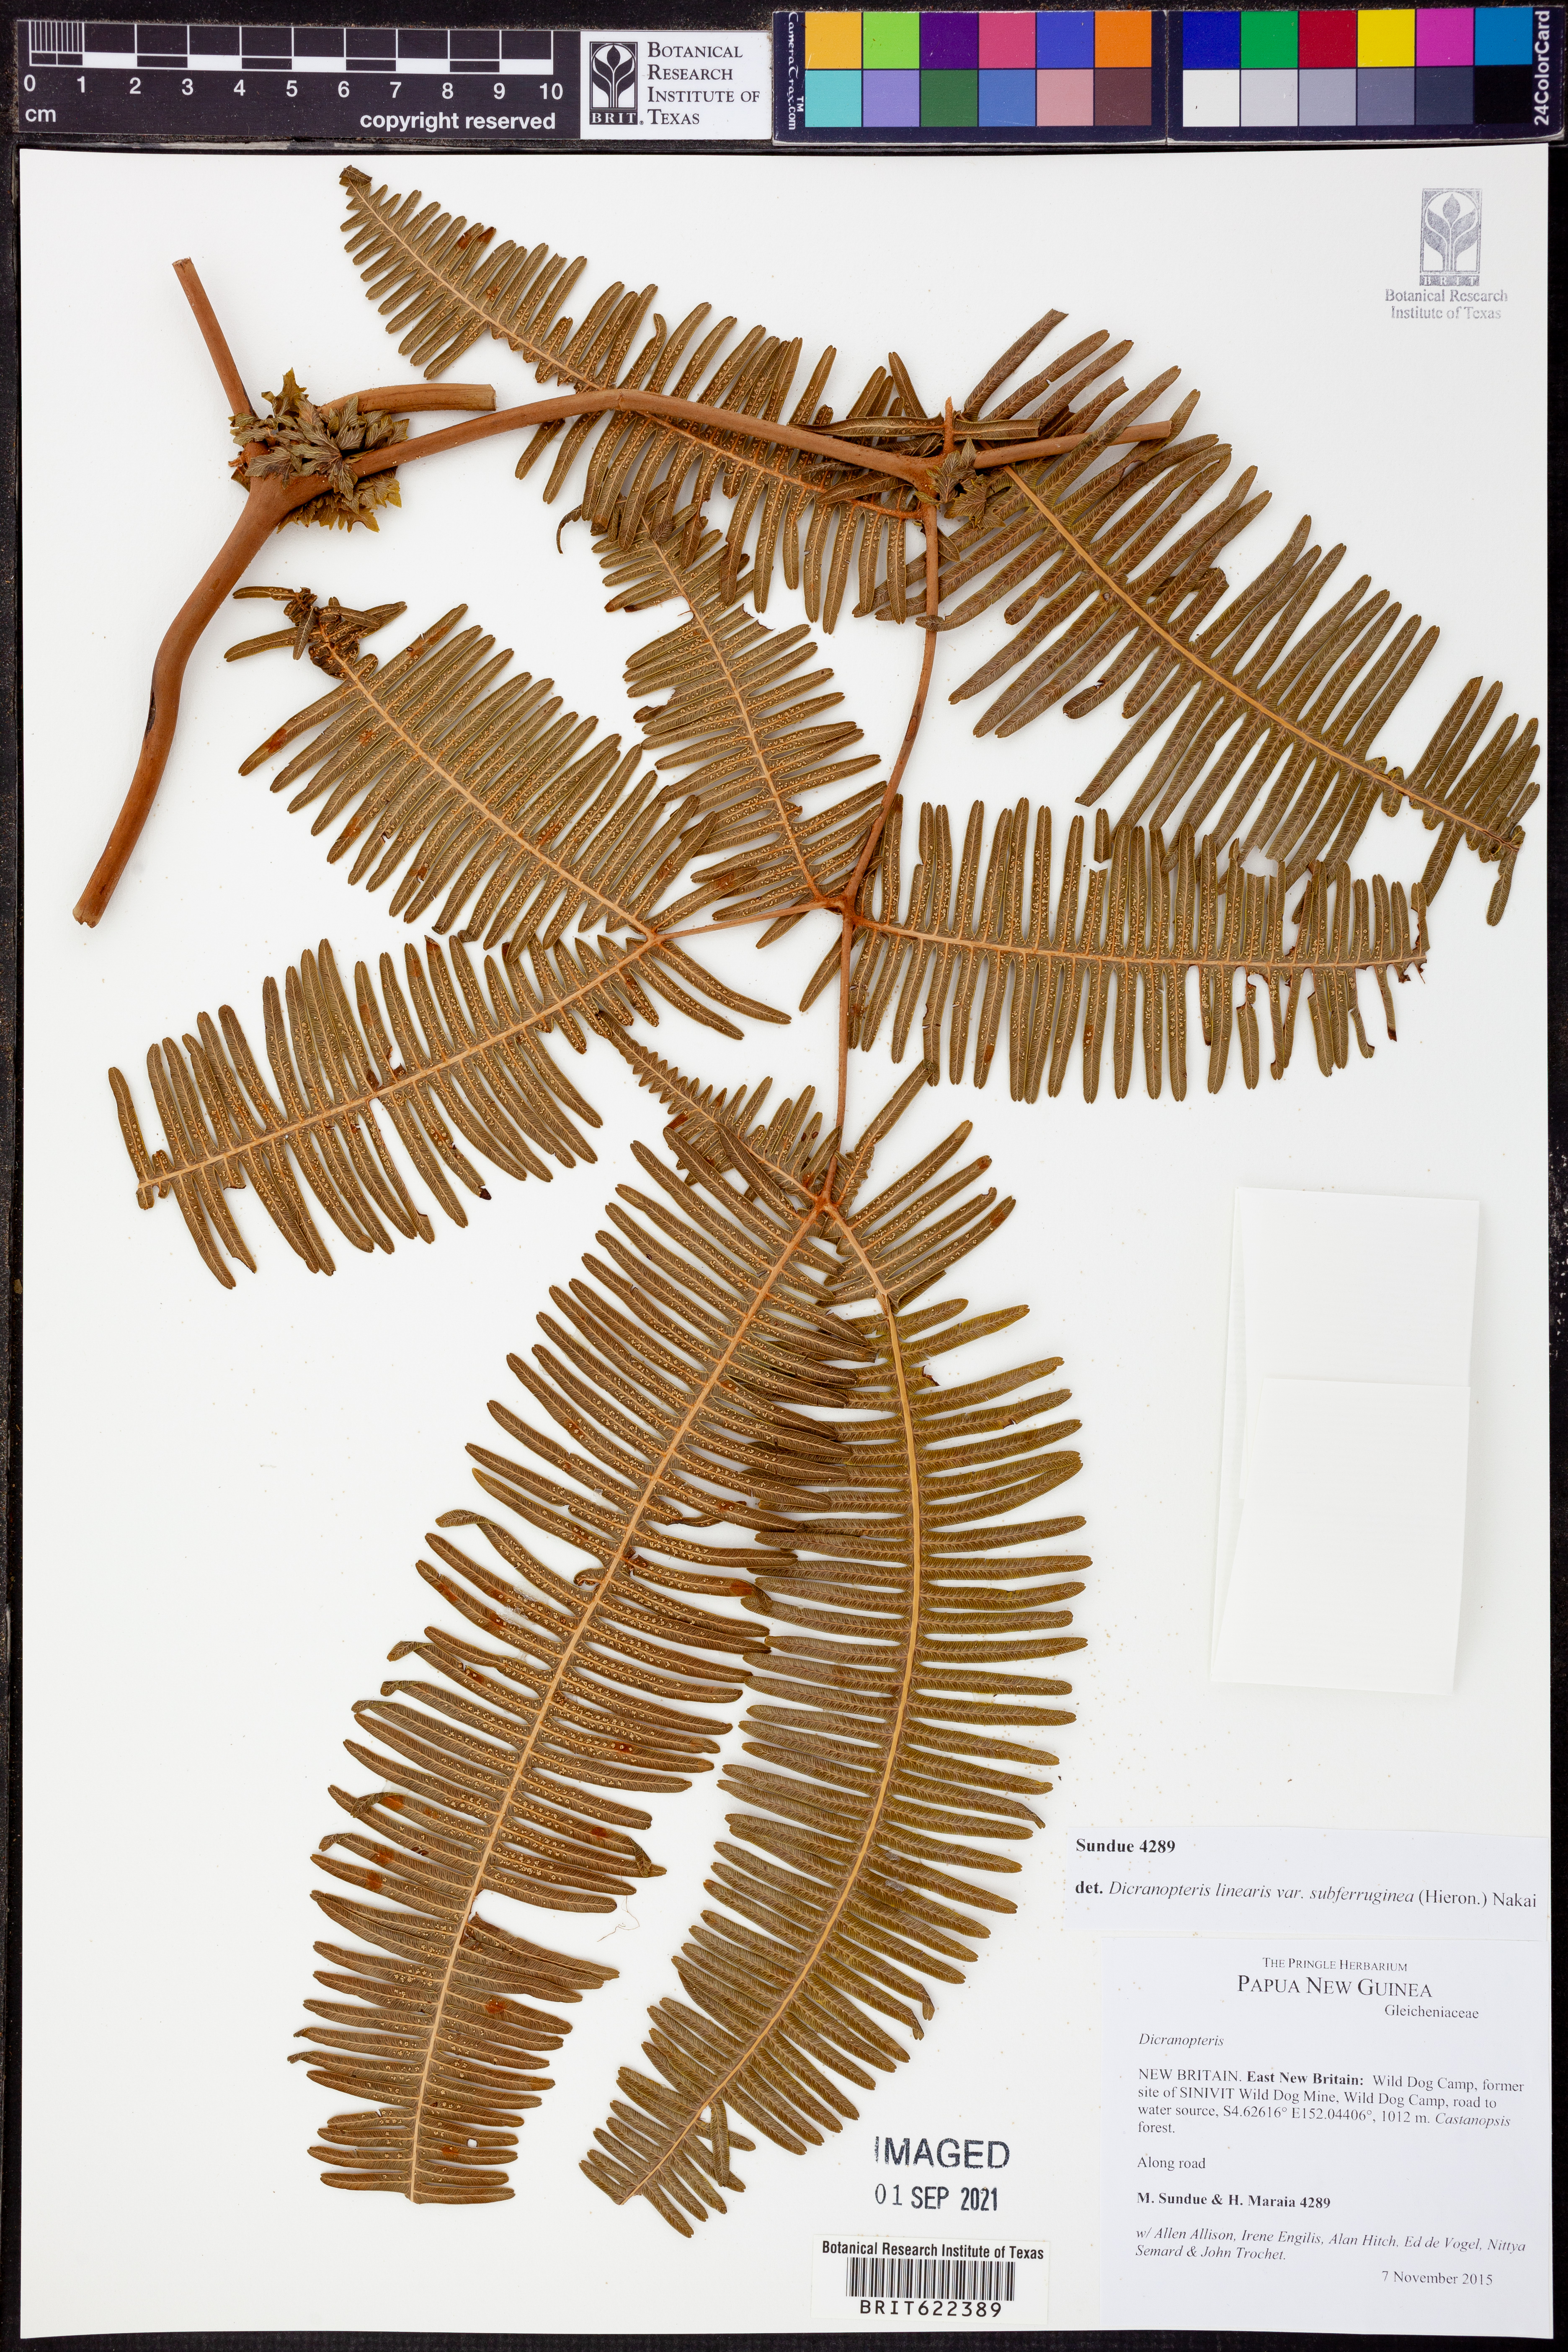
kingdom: Plantae
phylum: Tracheophyta
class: Polypodiopsida
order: Gleicheniales
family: Gleicheniaceae
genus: Dicranopteris
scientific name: Dicranopteris linearis
